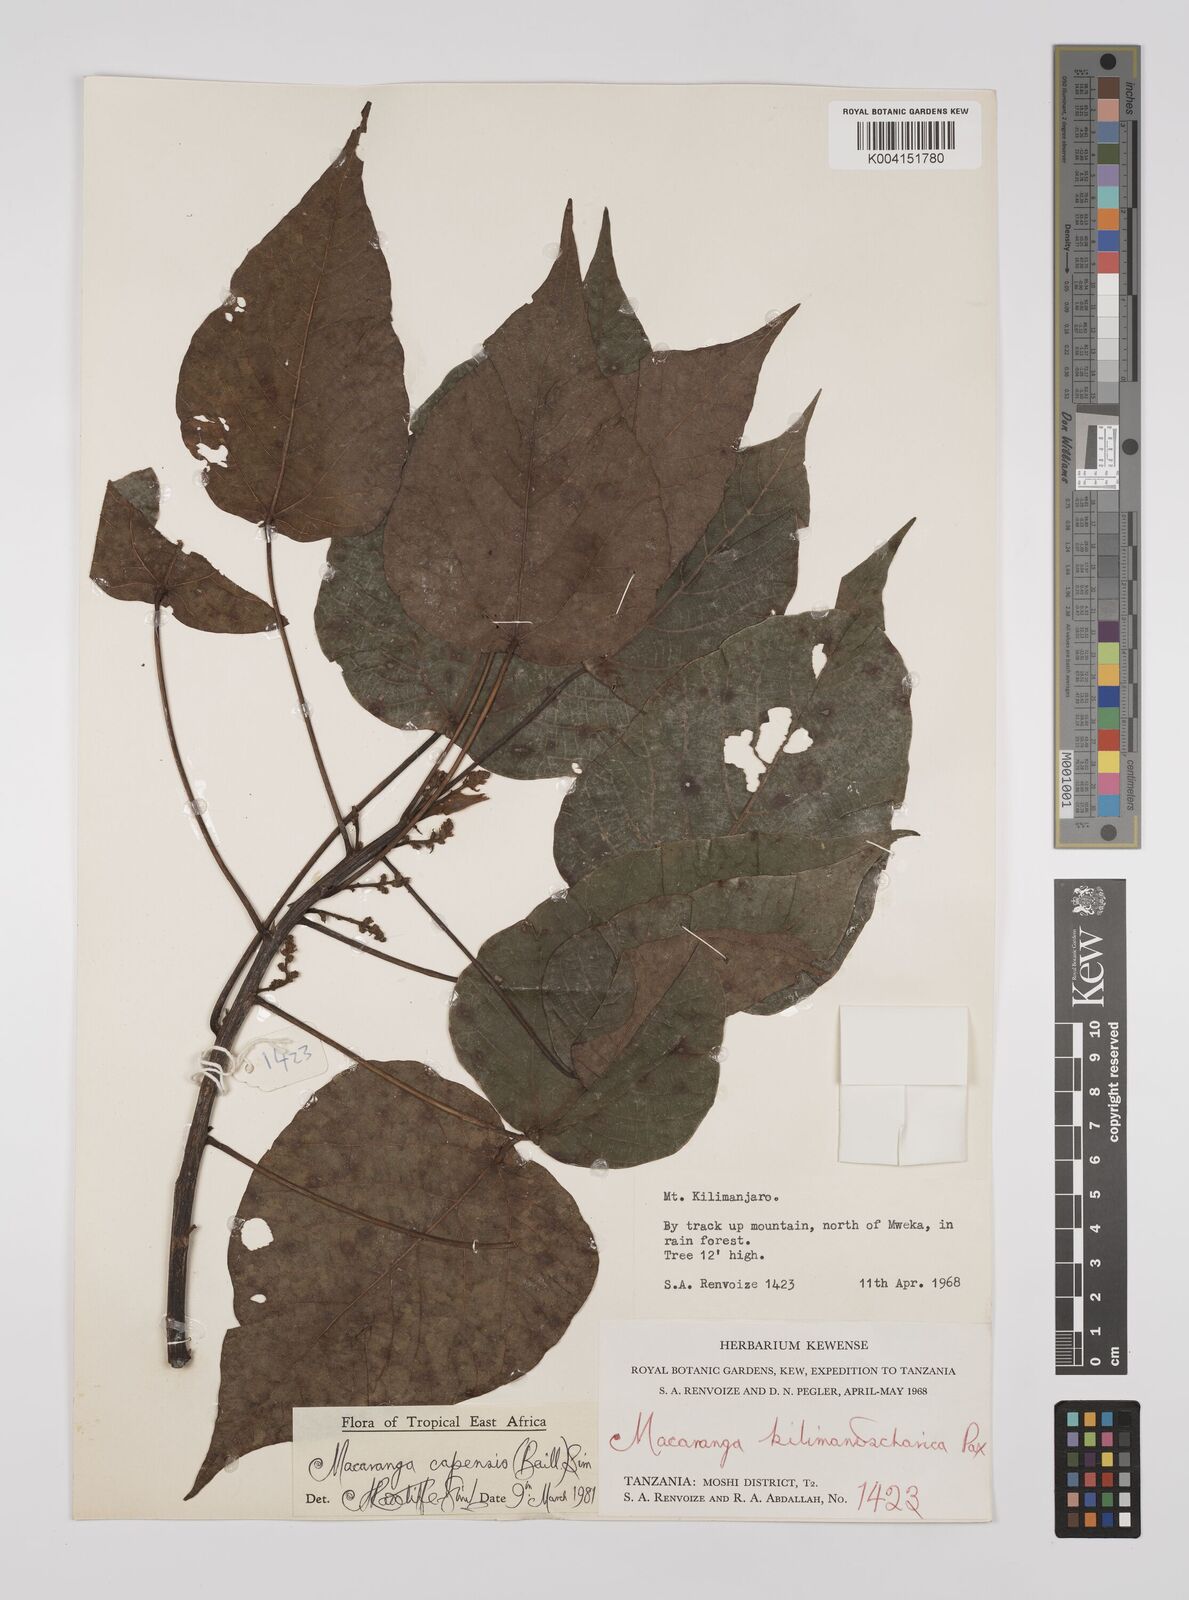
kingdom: Plantae
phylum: Tracheophyta
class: Magnoliopsida
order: Malpighiales
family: Euphorbiaceae
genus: Macaranga
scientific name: Macaranga capensis
